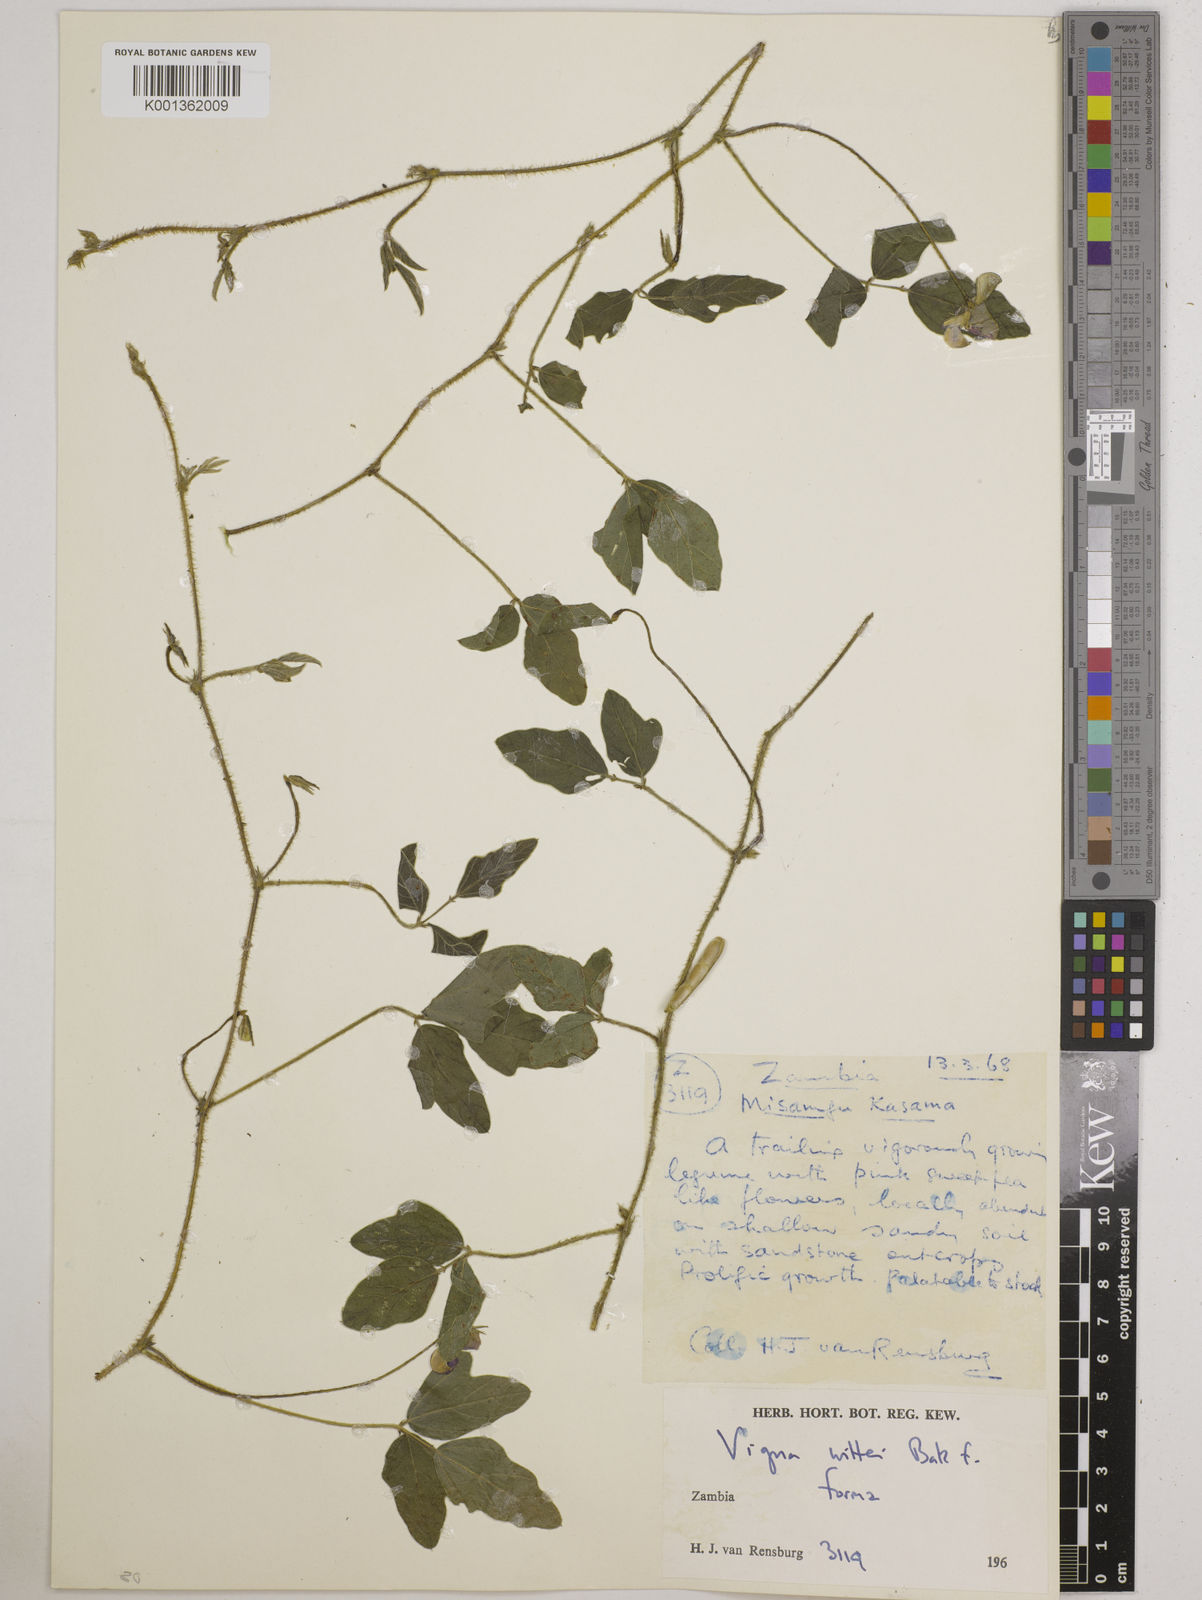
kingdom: Plantae
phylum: Tracheophyta
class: Magnoliopsida
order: Fabales
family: Fabaceae
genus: Vigna
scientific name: Vigna radicans
